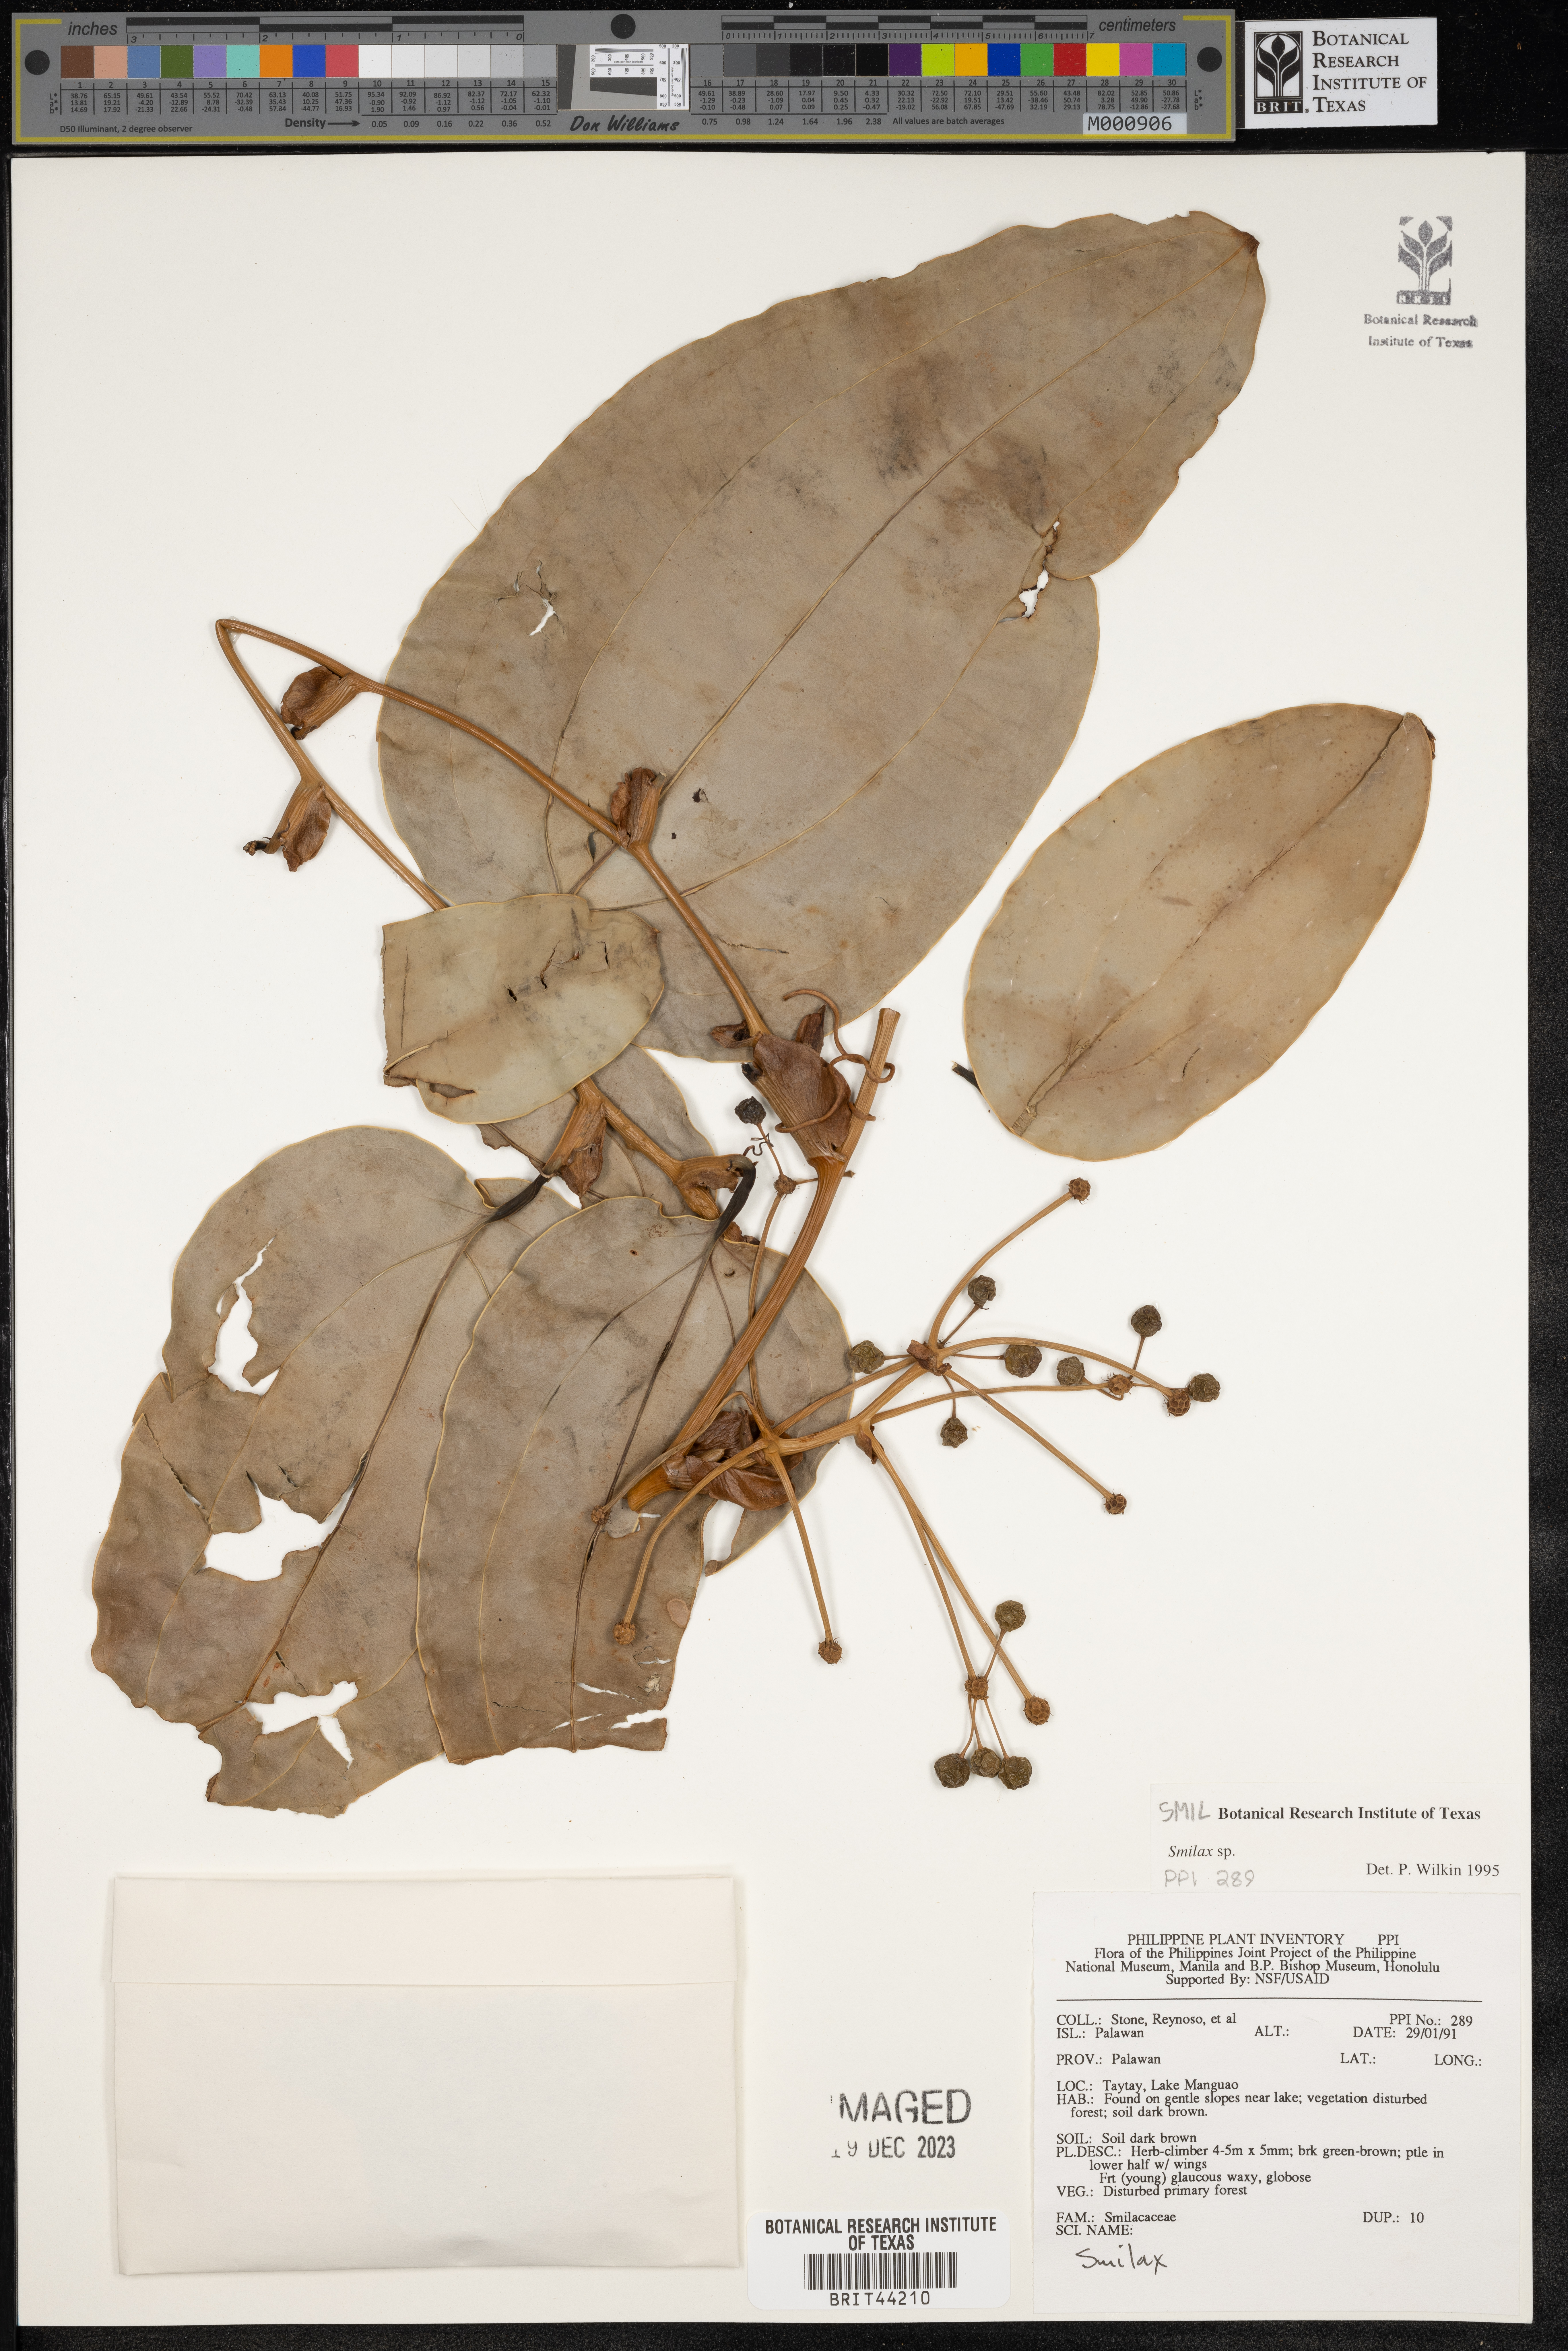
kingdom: Plantae
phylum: Tracheophyta
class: Liliopsida
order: Liliales
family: Smilacaceae
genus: Smilax
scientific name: Smilax
